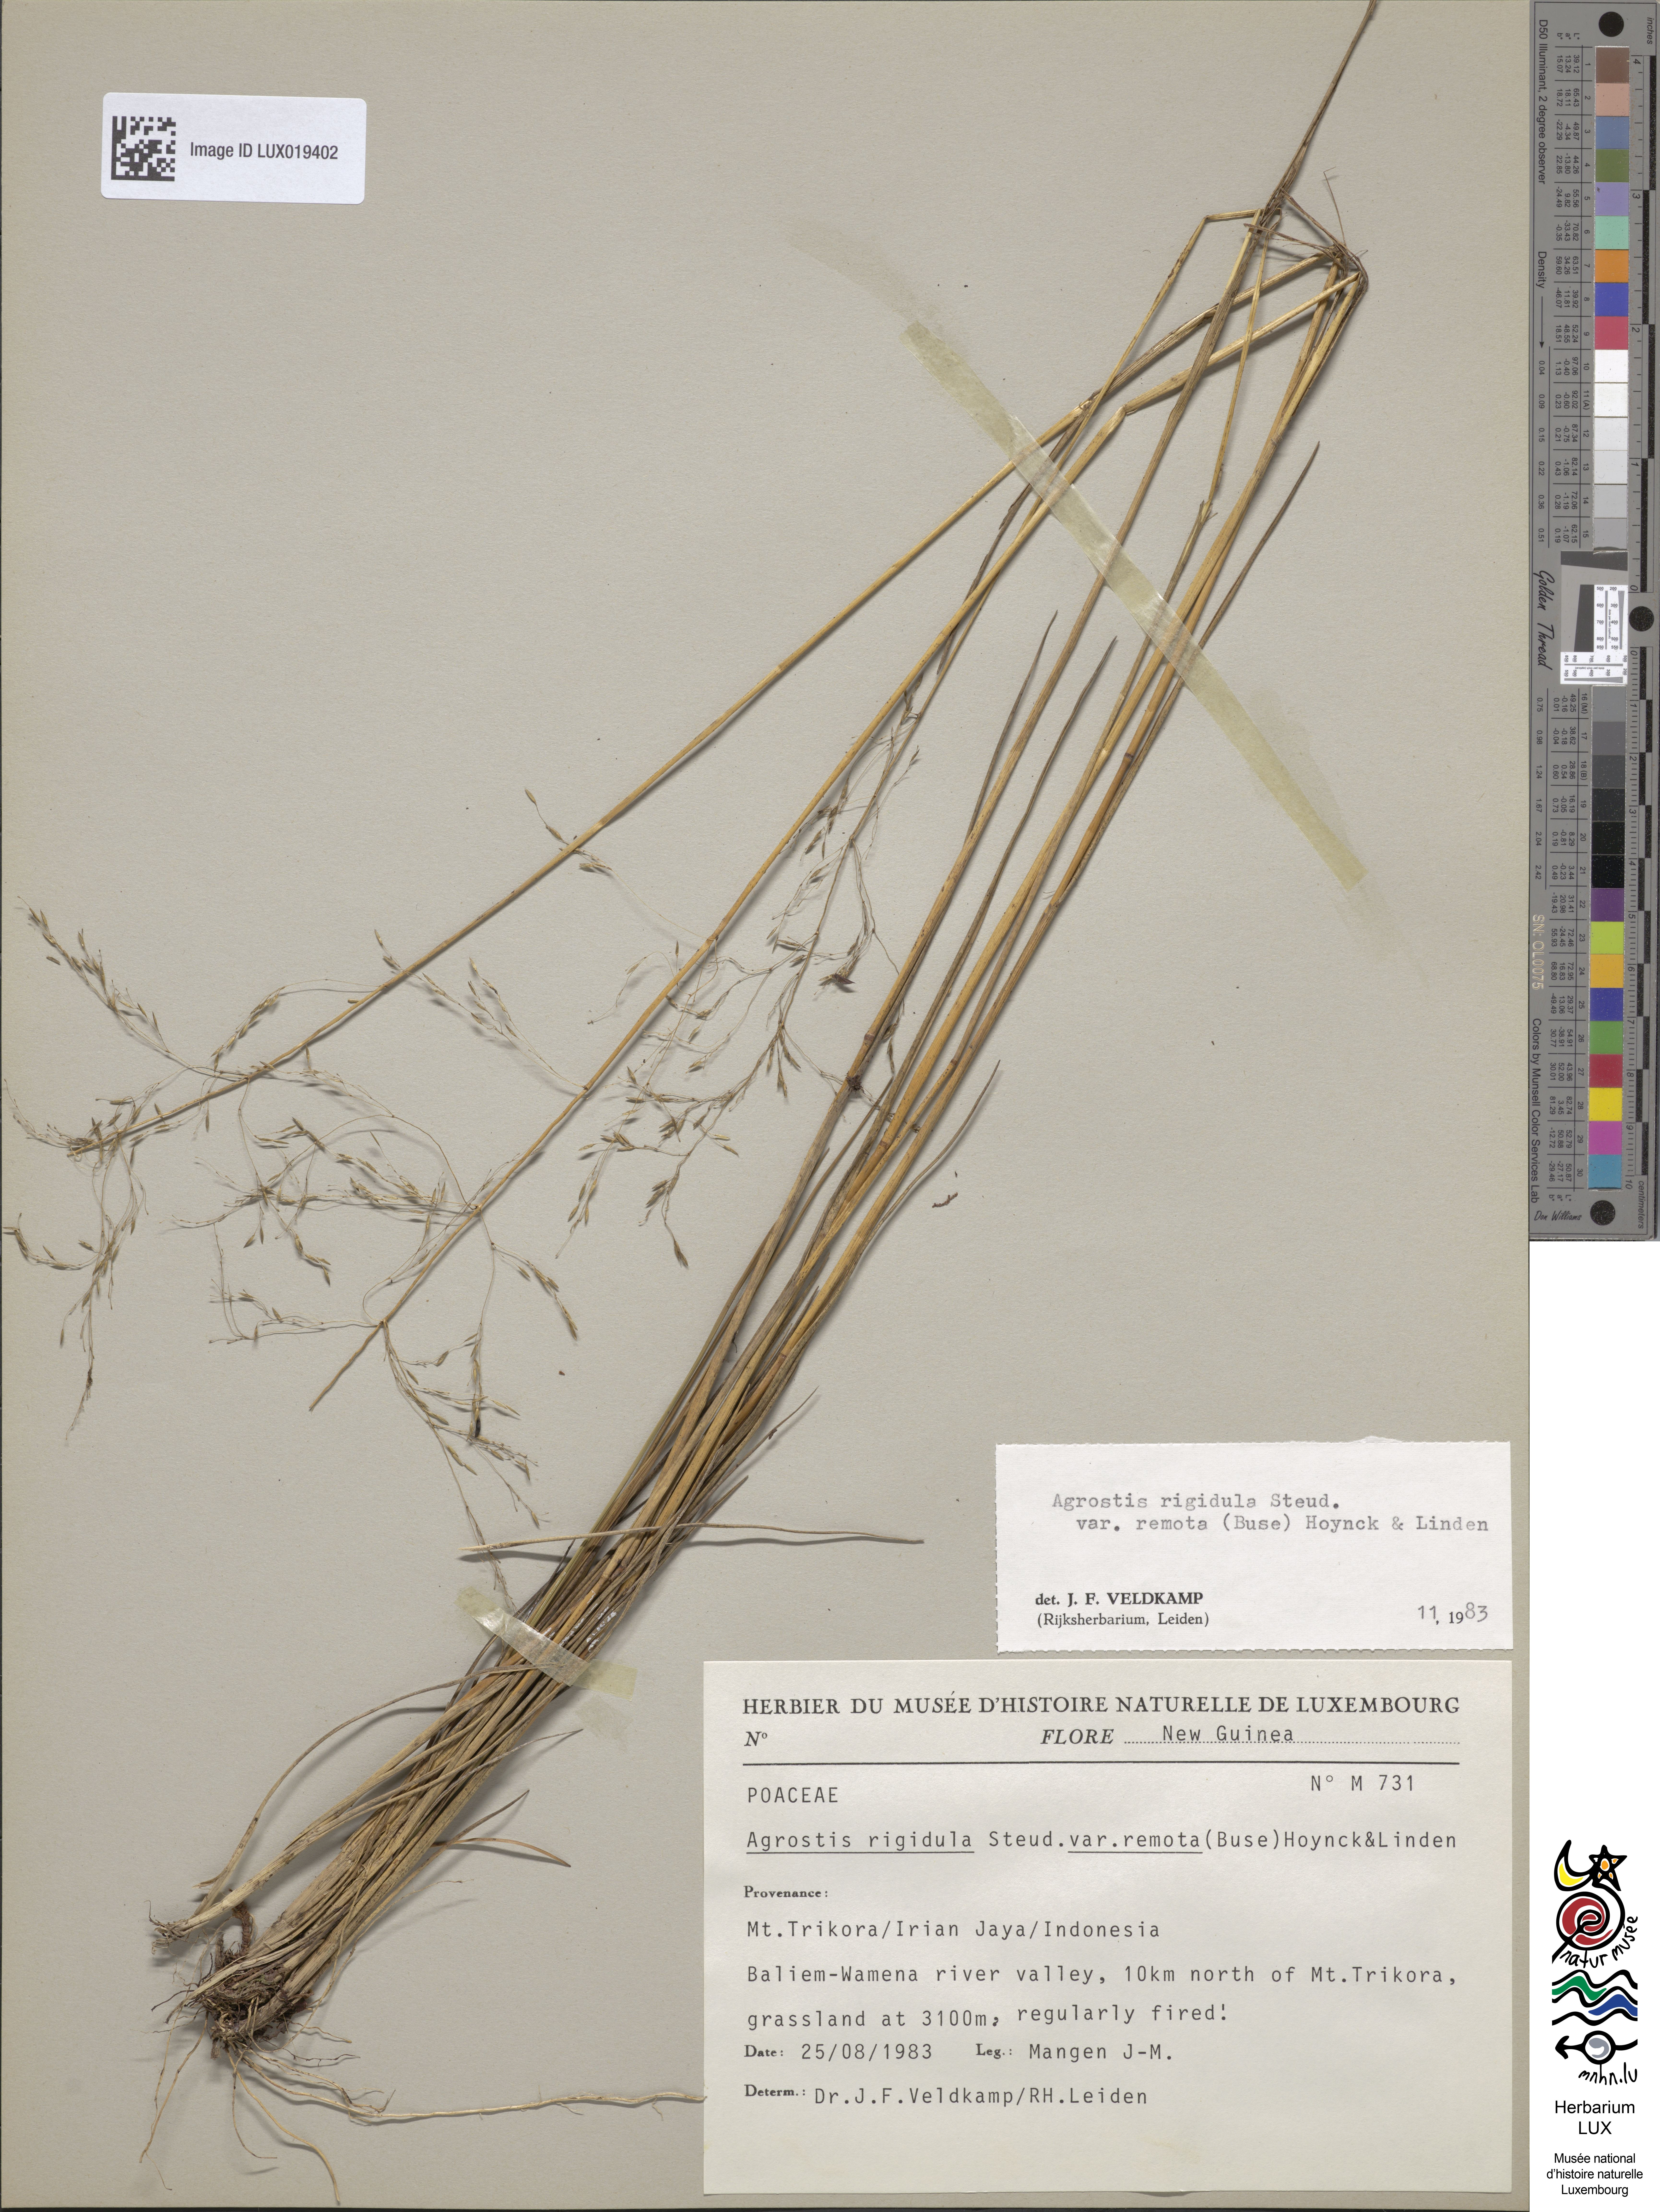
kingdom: Plantae
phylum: Tracheophyta
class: Liliopsida
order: Poales
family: Poaceae
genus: Agrostis
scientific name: Agrostis infirma
